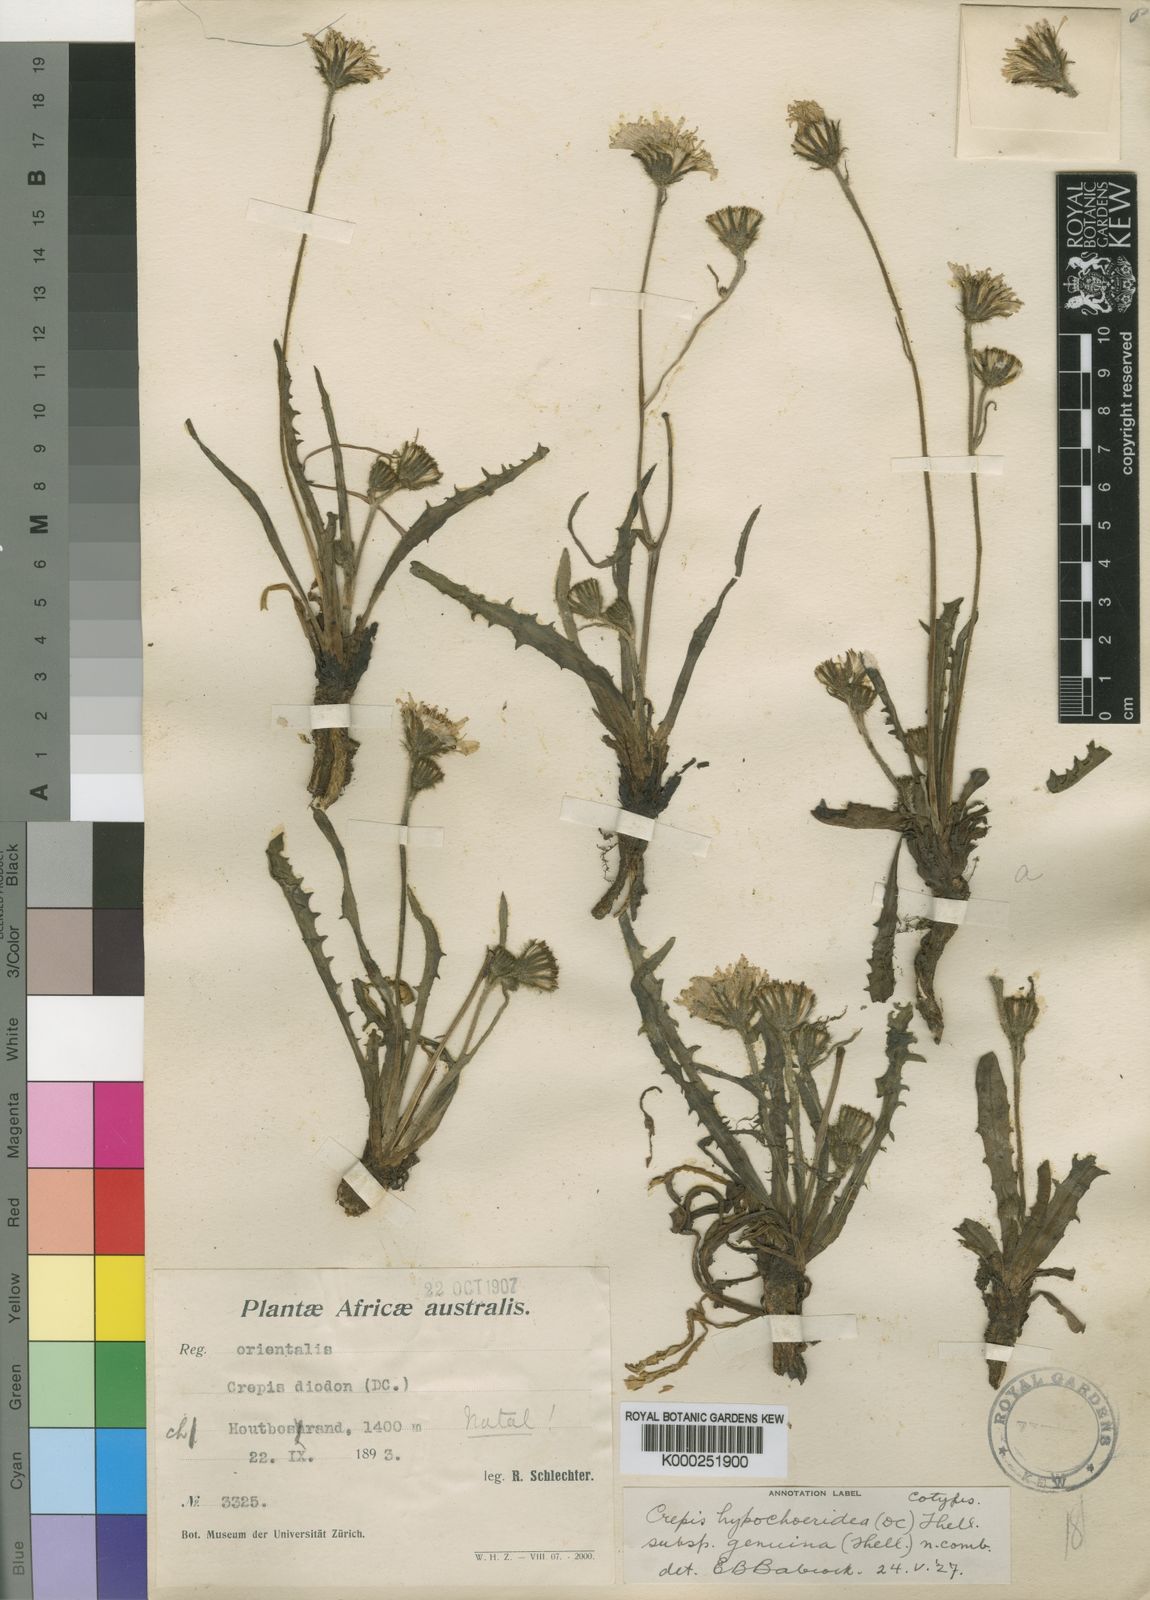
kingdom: Plantae
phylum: Tracheophyta
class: Magnoliopsida
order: Asterales
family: Asteraceae
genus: Crepis
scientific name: Crepis hypochoeridea
